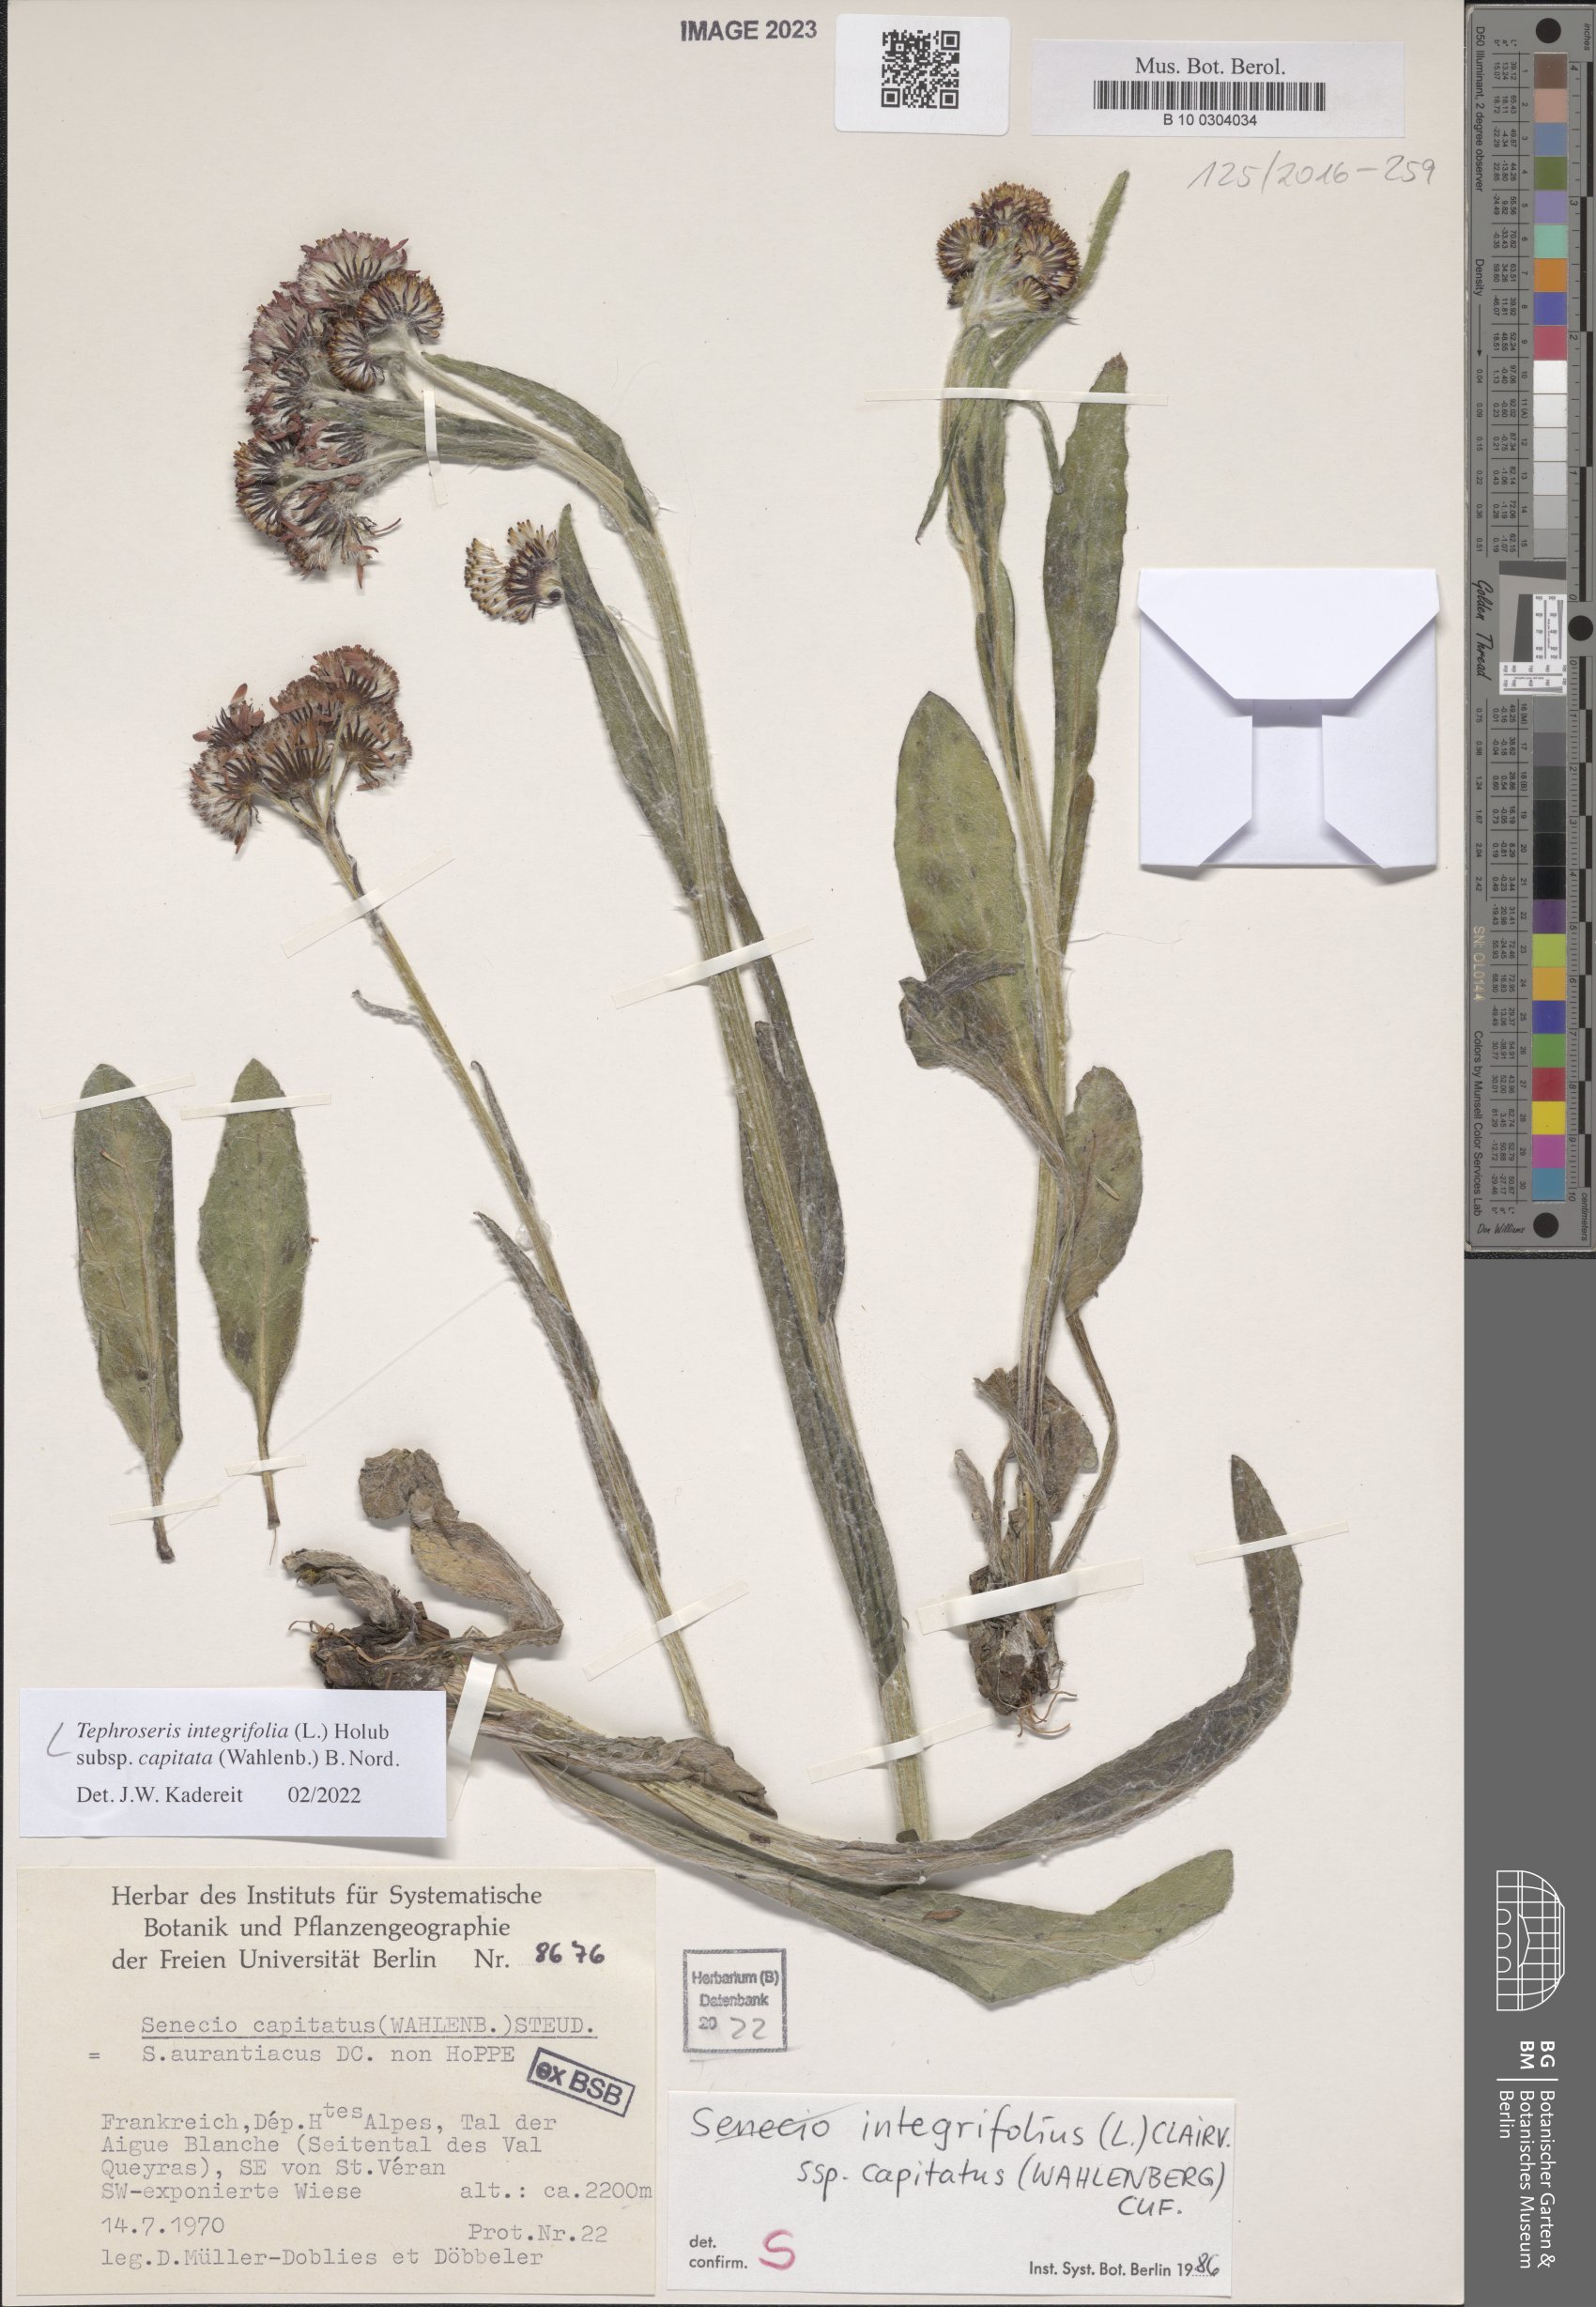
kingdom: Plantae
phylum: Tracheophyta
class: Magnoliopsida
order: Asterales
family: Asteraceae
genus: Tephroseris
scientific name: Tephroseris integrifolia
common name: Field fleawort
